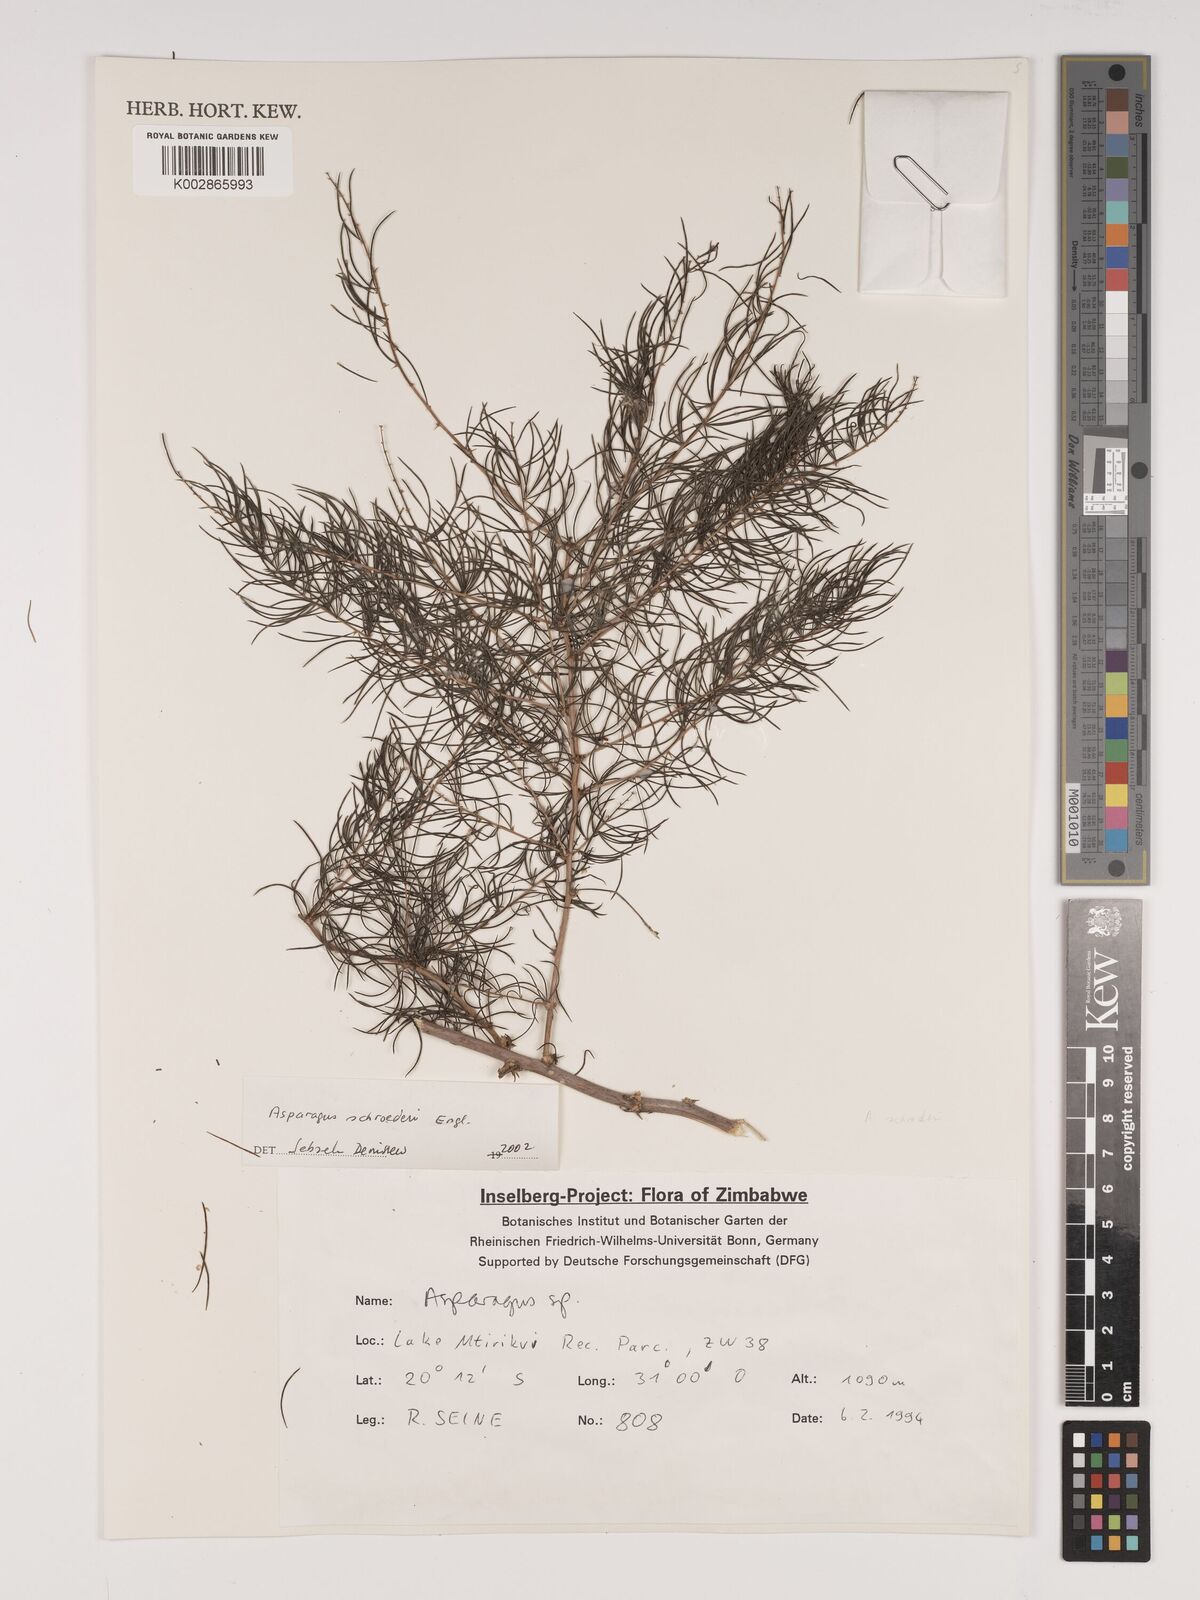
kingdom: Plantae
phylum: Tracheophyta
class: Liliopsida
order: Asparagales
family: Asparagaceae
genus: Asparagus
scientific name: Asparagus schroederi
